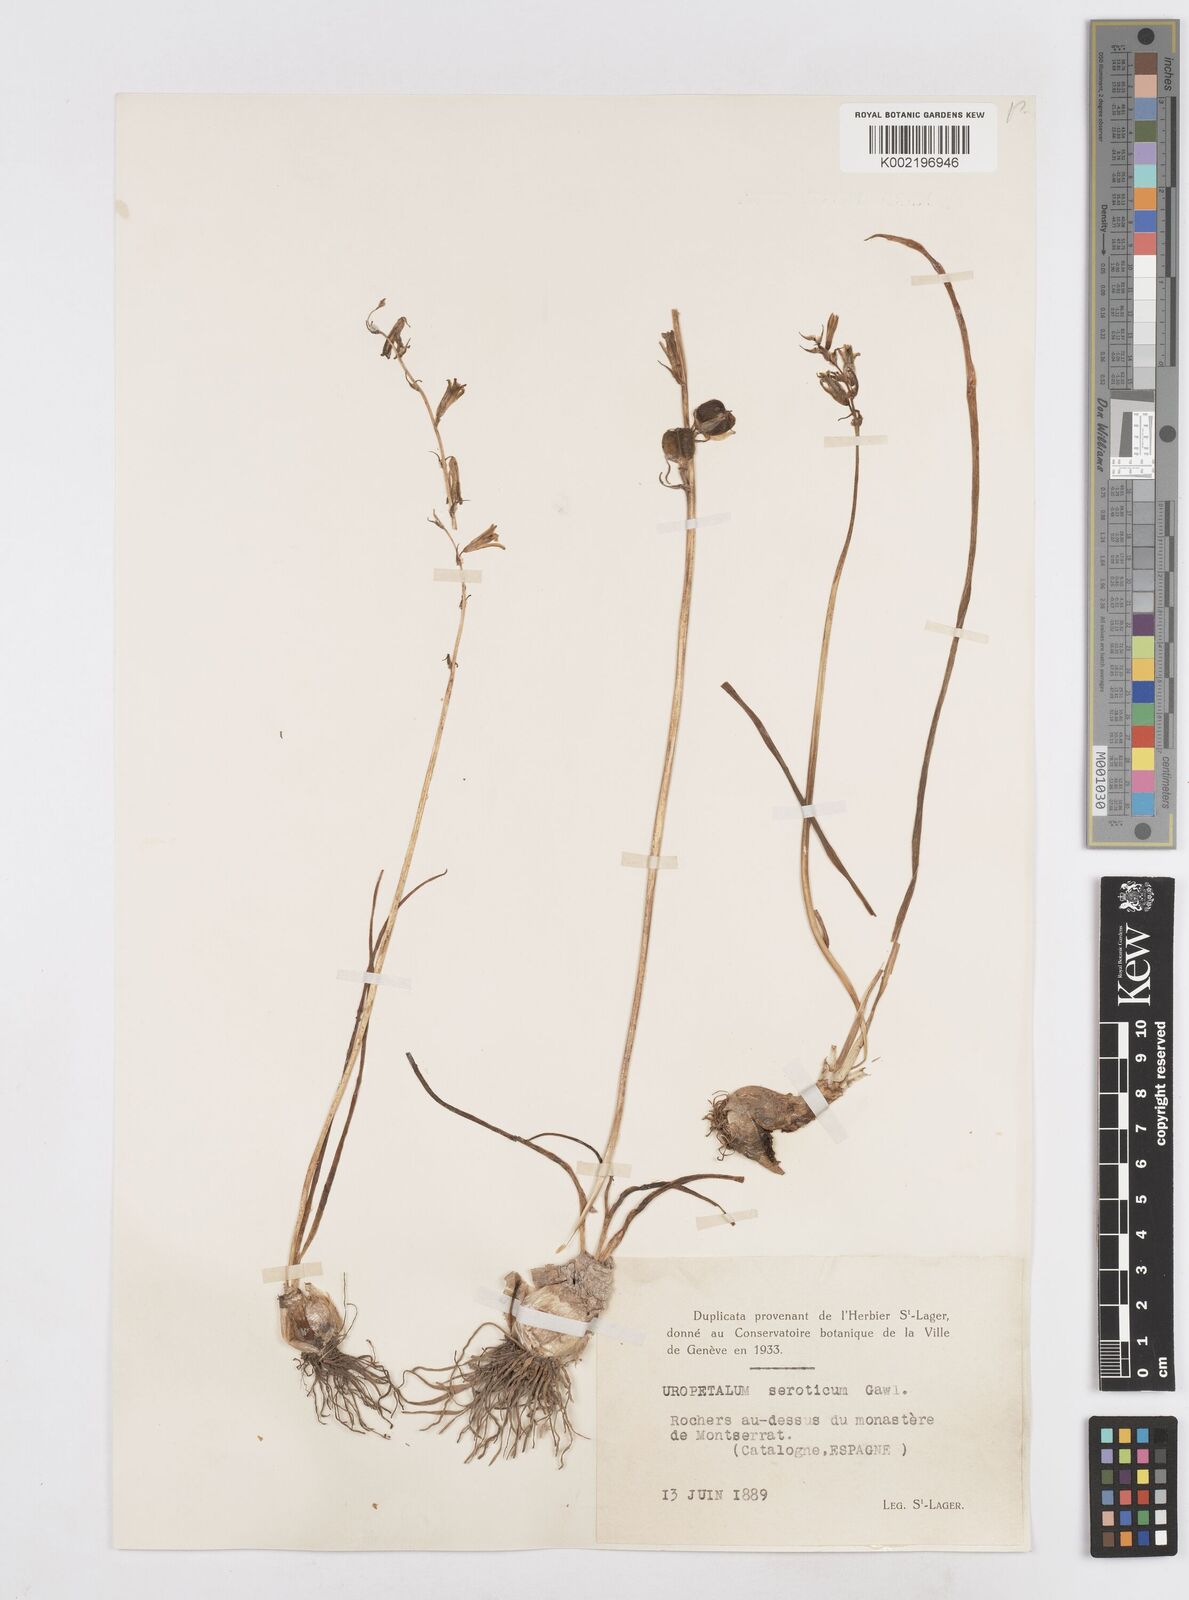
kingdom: Plantae
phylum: Tracheophyta
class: Liliopsida
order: Asparagales
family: Asparagaceae
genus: Dipcadi
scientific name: Dipcadi serotinum
